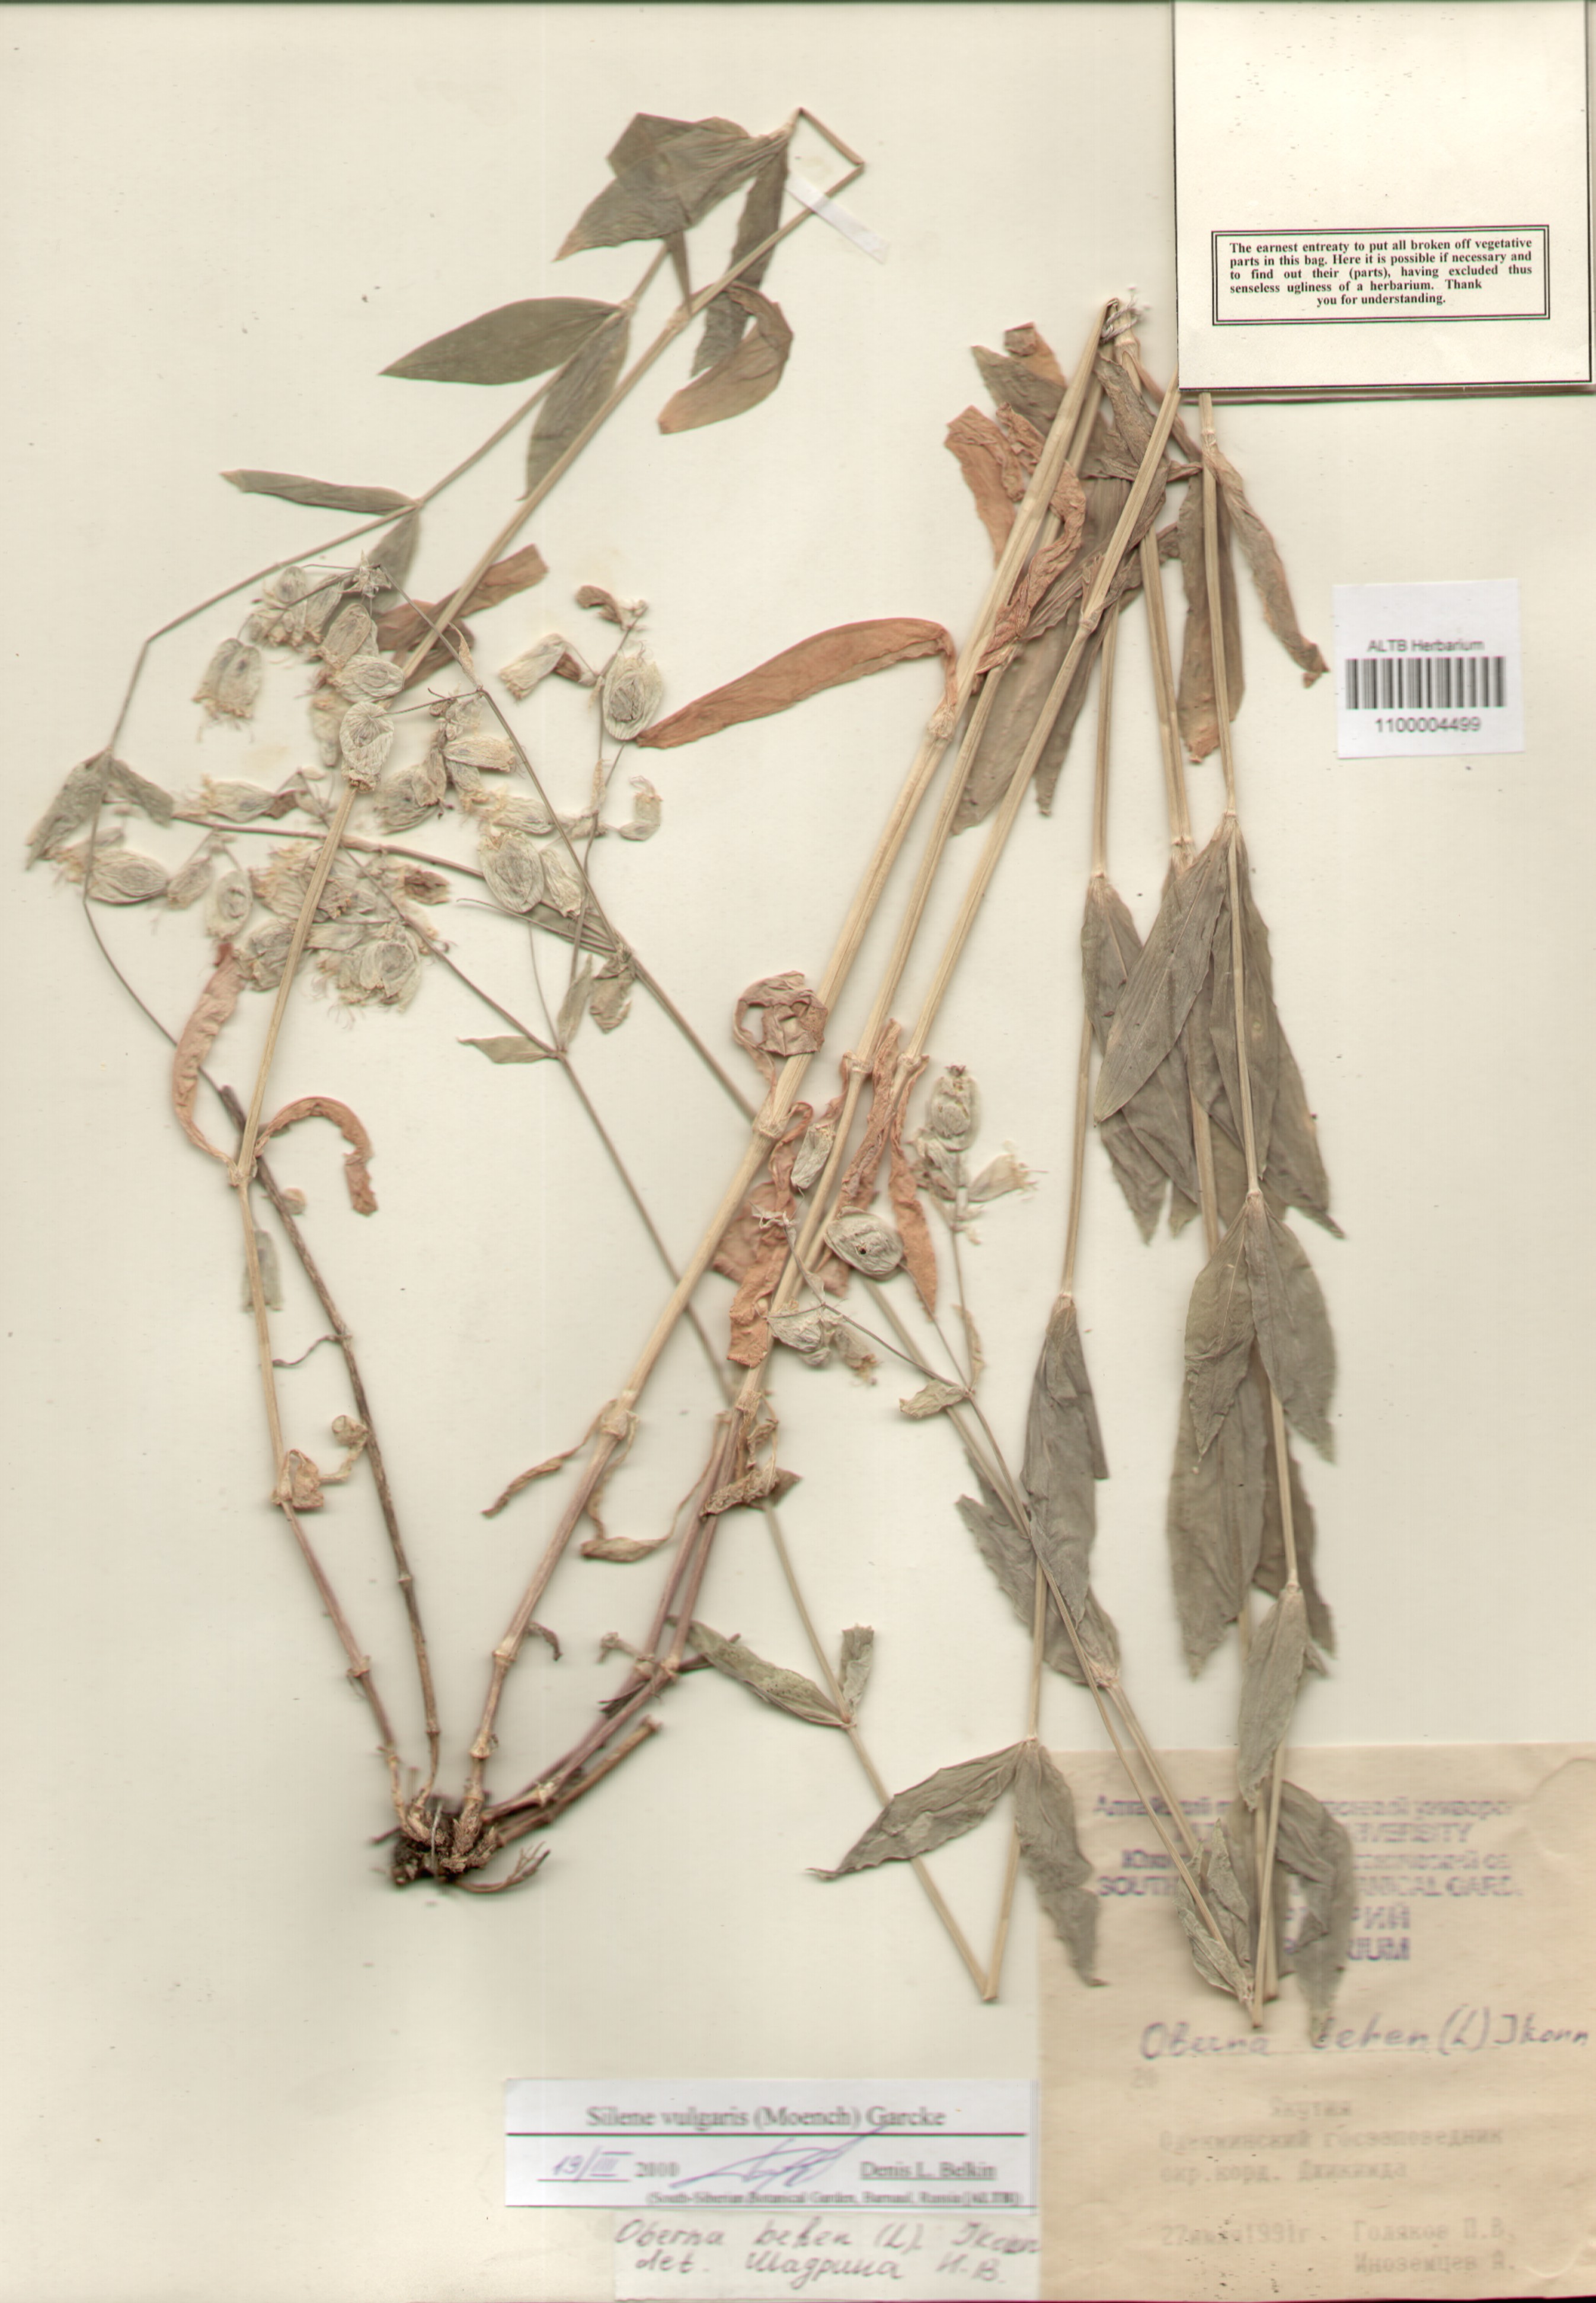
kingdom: Plantae
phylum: Tracheophyta
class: Magnoliopsida
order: Caryophyllales
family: Caryophyllaceae
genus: Silene
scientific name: Silene vulgaris
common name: Bladder campion
